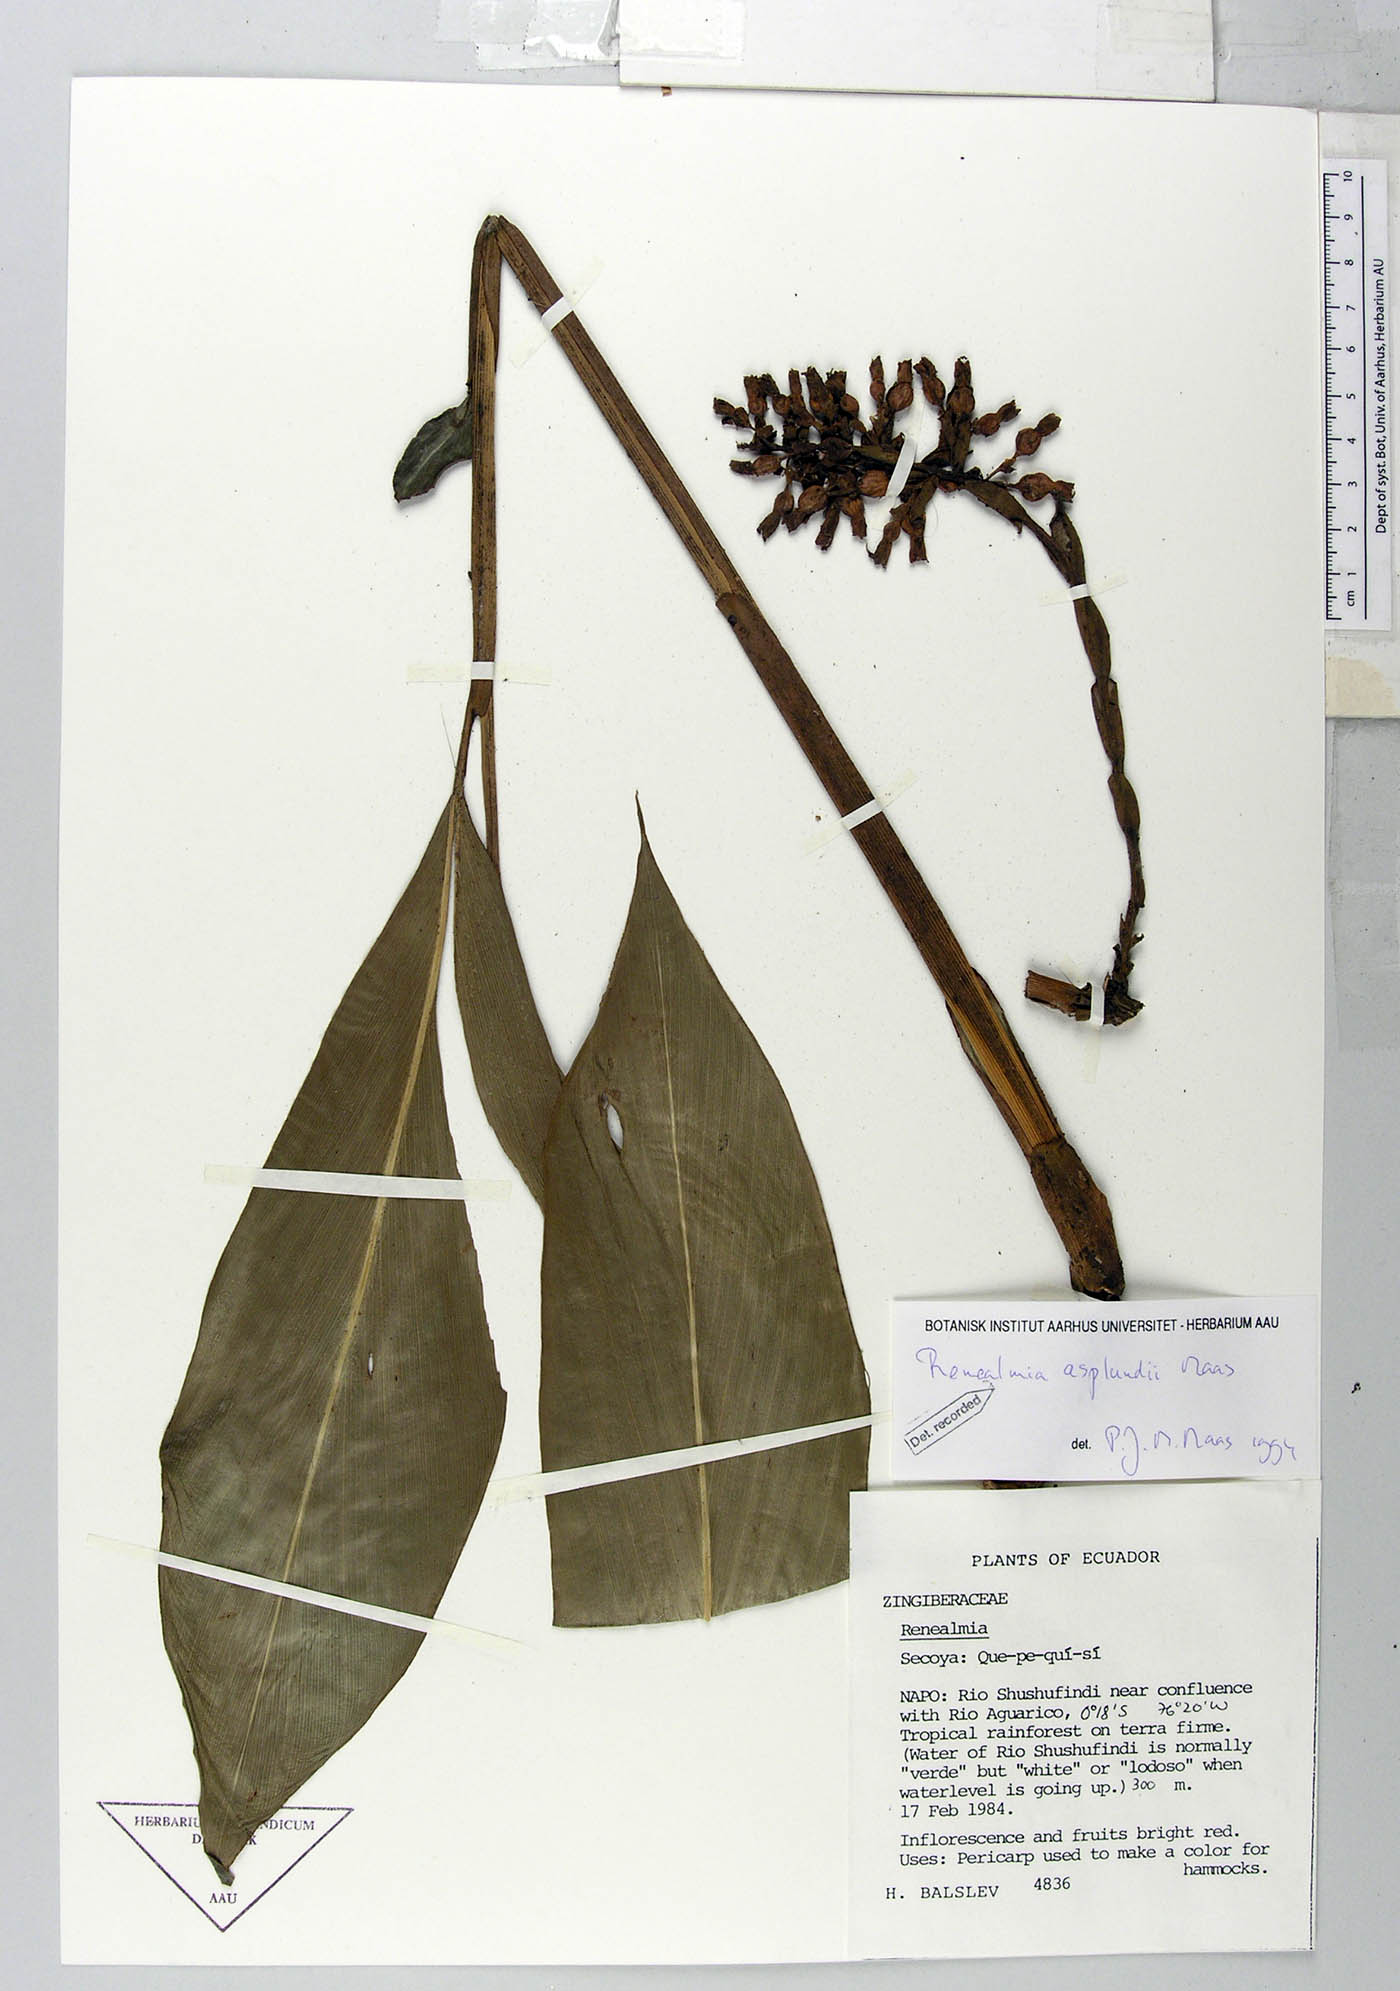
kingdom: Plantae
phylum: Tracheophyta
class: Liliopsida
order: Zingiberales
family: Zingiberaceae
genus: Renealmia
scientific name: Renealmia asplundii
